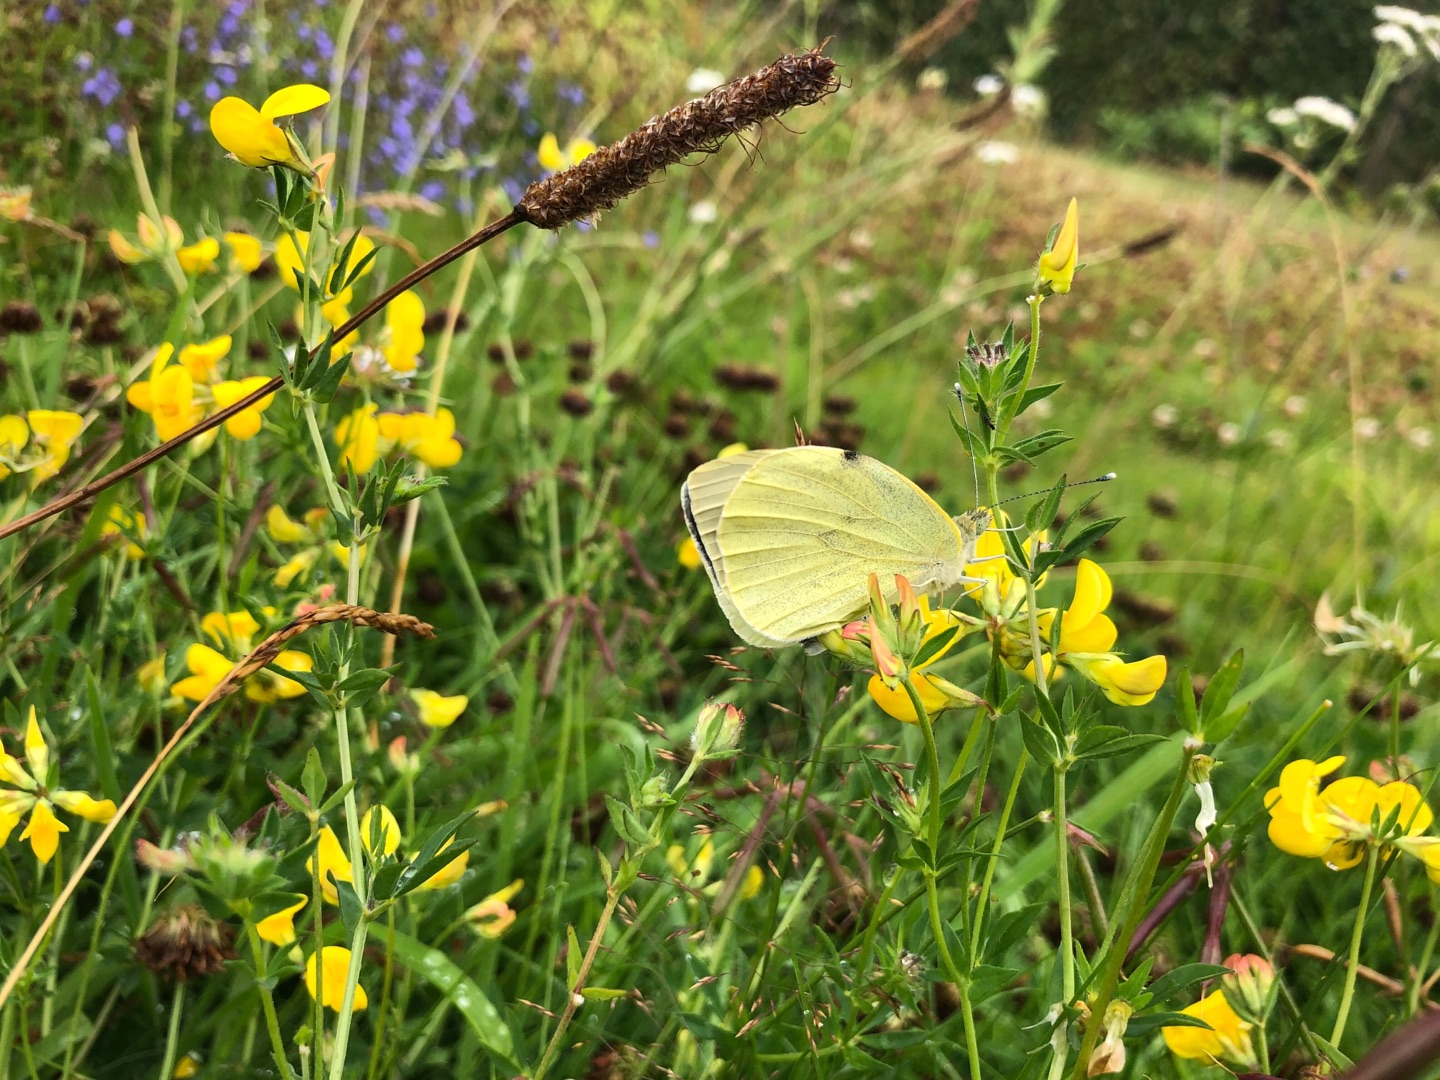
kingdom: Animalia
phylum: Arthropoda
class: Insecta
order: Lepidoptera
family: Pieridae
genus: Pieris
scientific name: Pieris brassicae
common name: Stor kålsommerfugl
